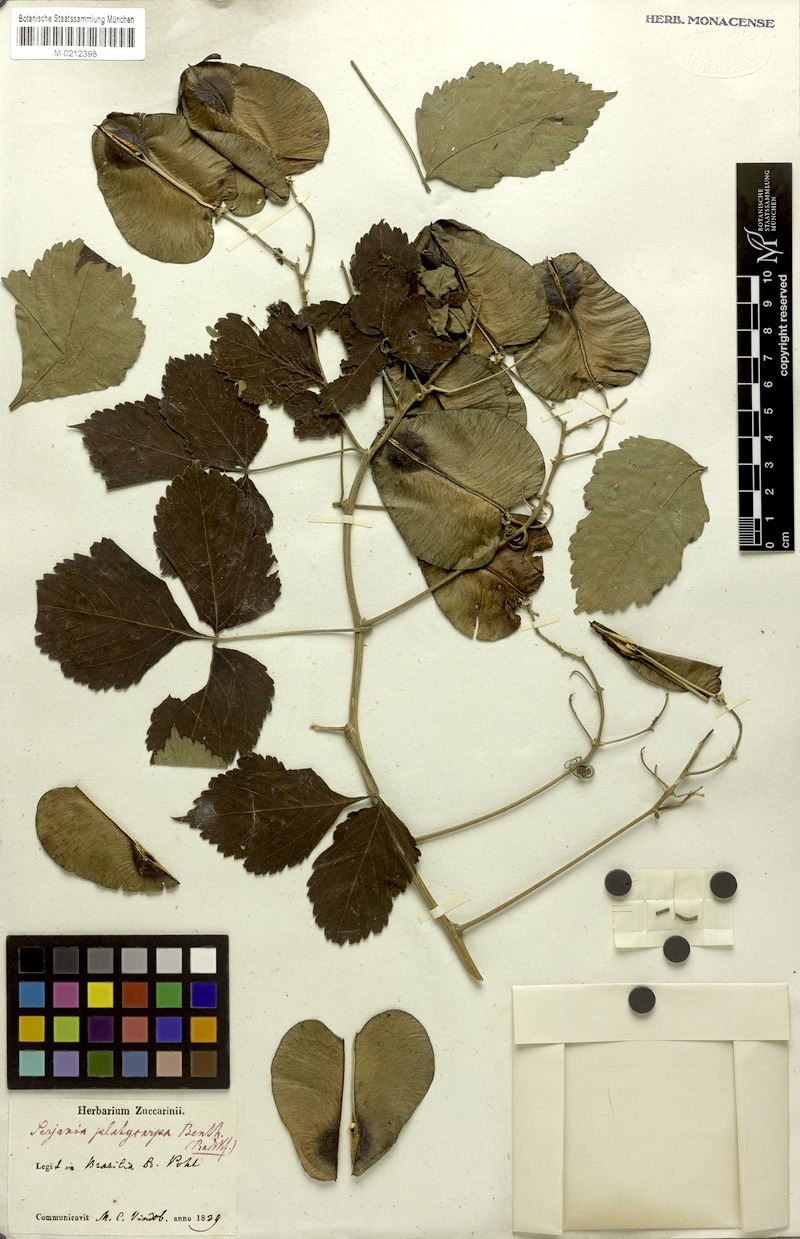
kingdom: Plantae
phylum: Tracheophyta
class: Magnoliopsida
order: Sapindales
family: Sapindaceae
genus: Serjania
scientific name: Serjania platycarpa
